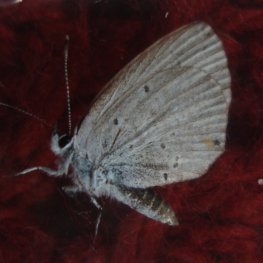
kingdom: Animalia
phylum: Arthropoda
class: Insecta
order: Lepidoptera
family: Lycaenidae
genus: Elkalyce
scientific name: Elkalyce amyntula
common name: Western Tailed-Blue
